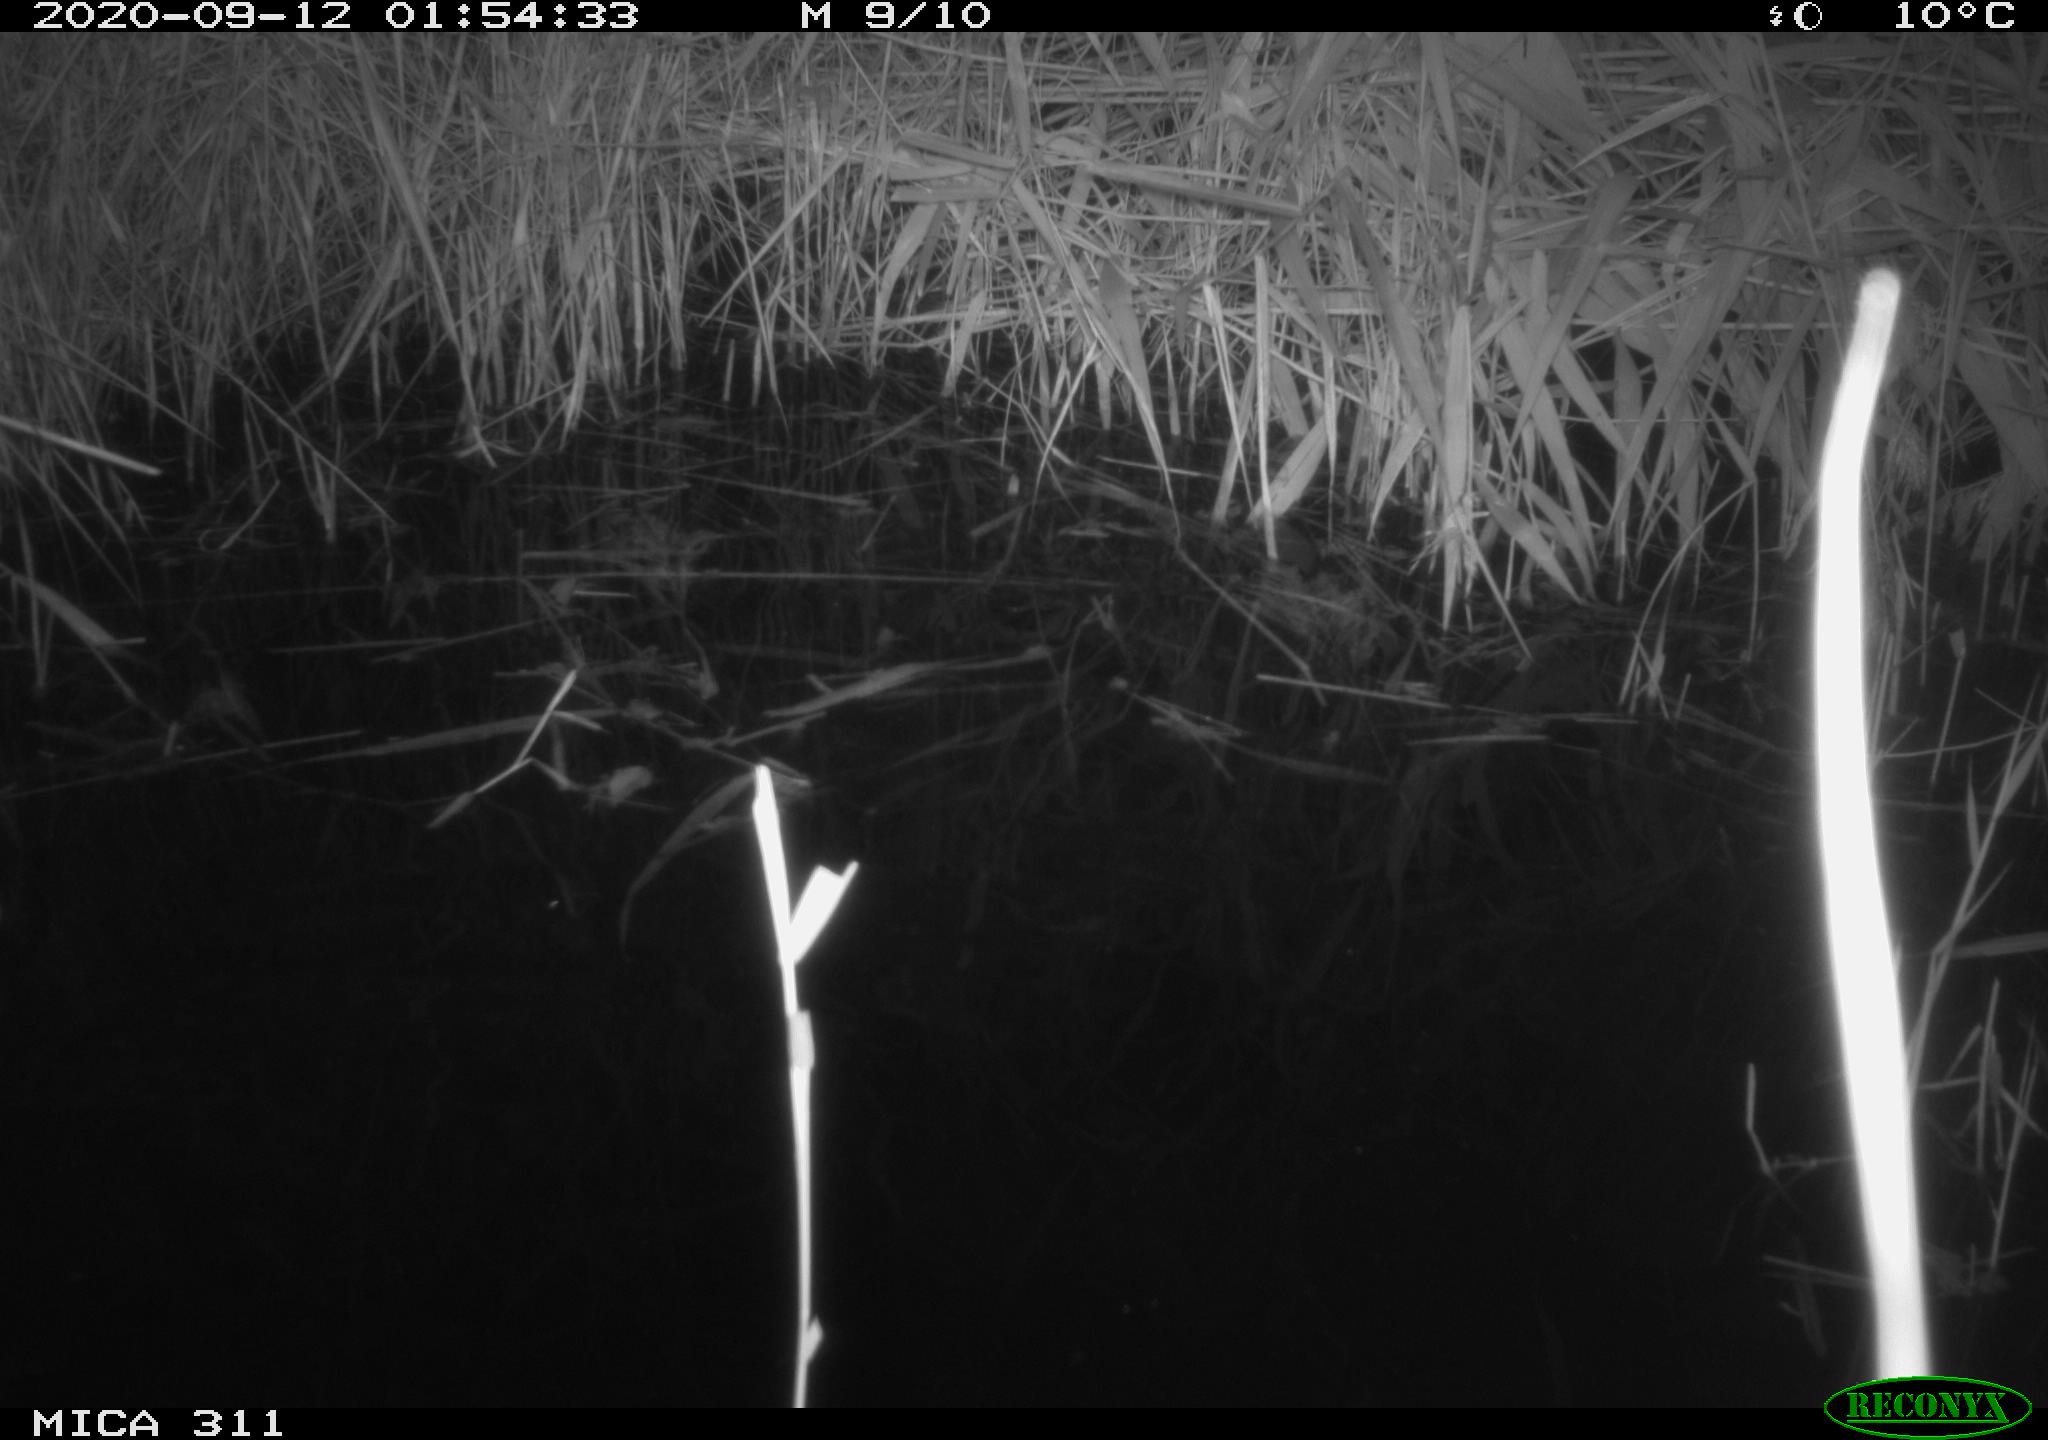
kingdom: Animalia
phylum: Chordata
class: Mammalia
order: Rodentia
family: Muridae
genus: Rattus
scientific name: Rattus norvegicus
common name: Brown rat
